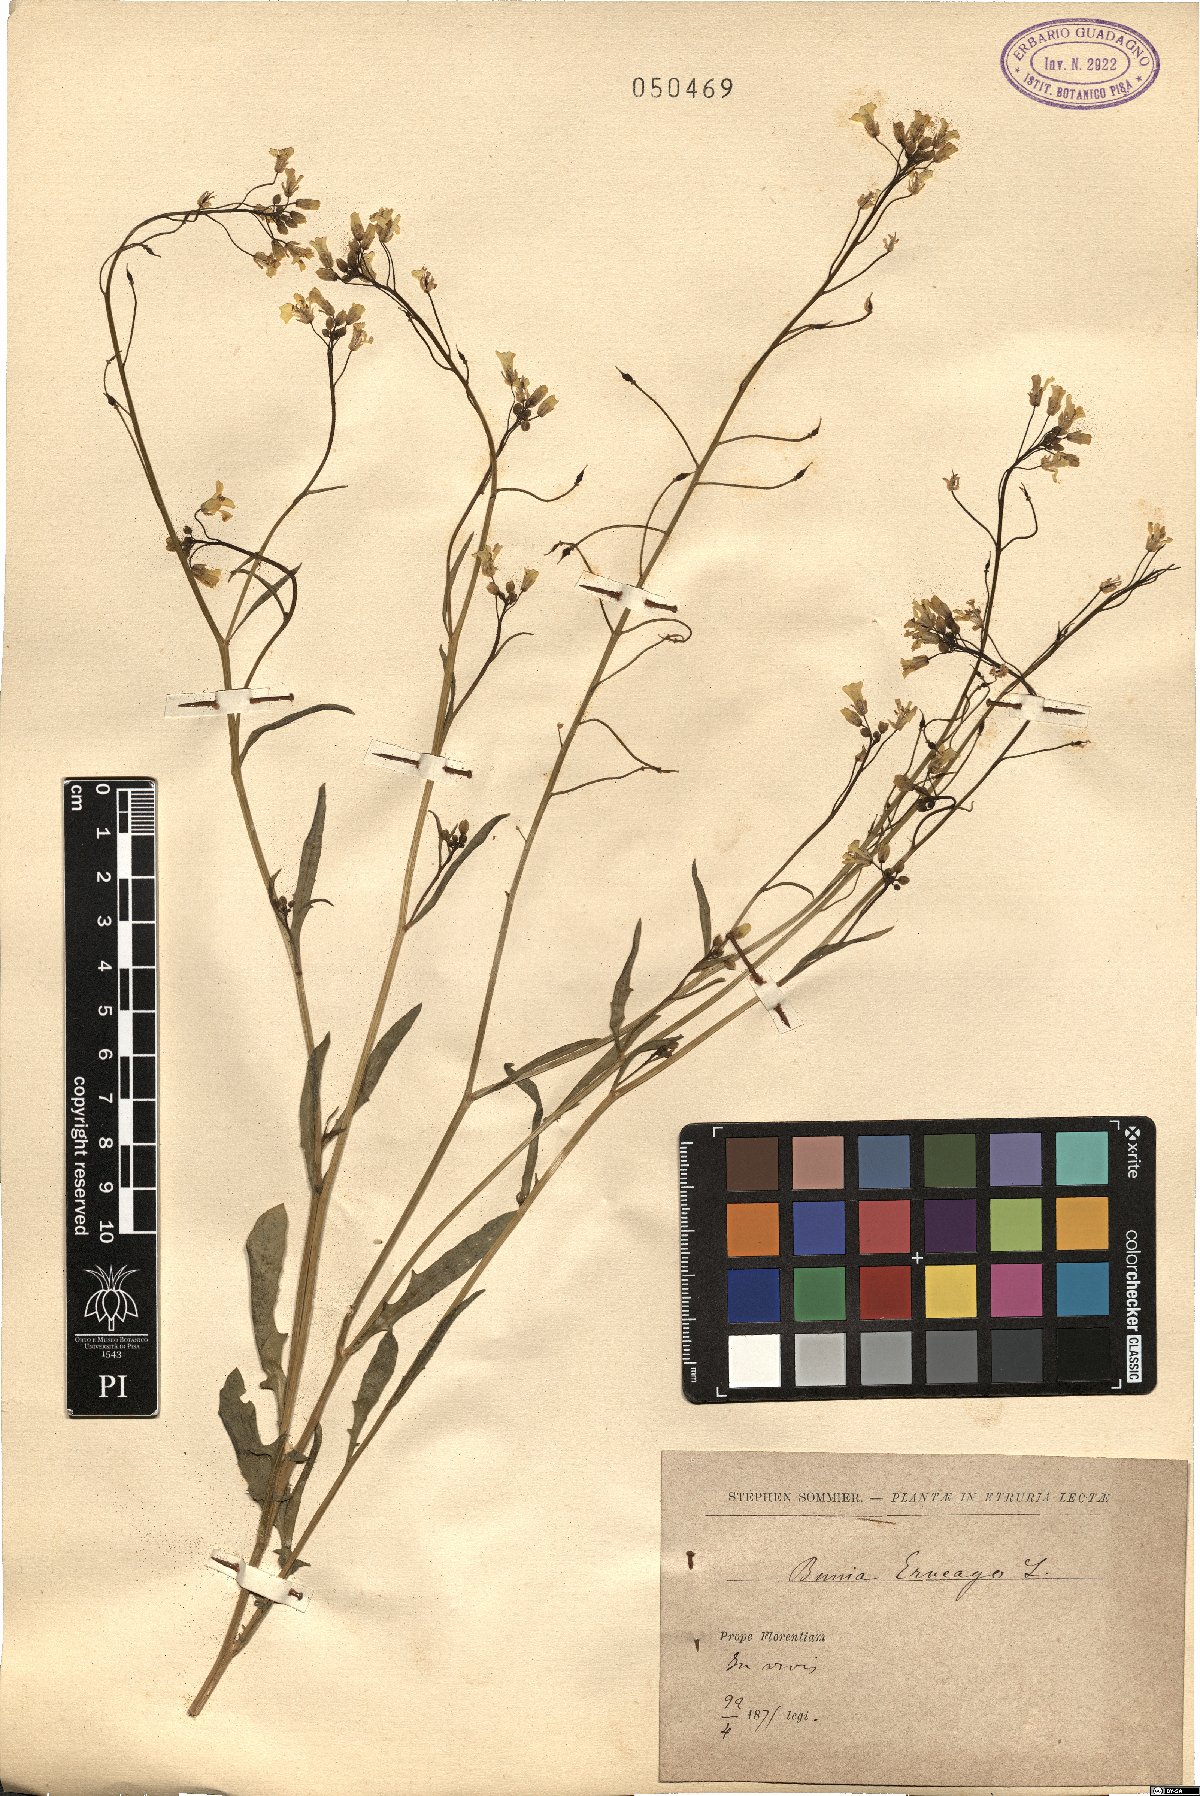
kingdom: Plantae
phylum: Tracheophyta
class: Magnoliopsida
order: Brassicales
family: Brassicaceae
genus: Bunias
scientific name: Bunias erucago
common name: Southern warty-cabbage
